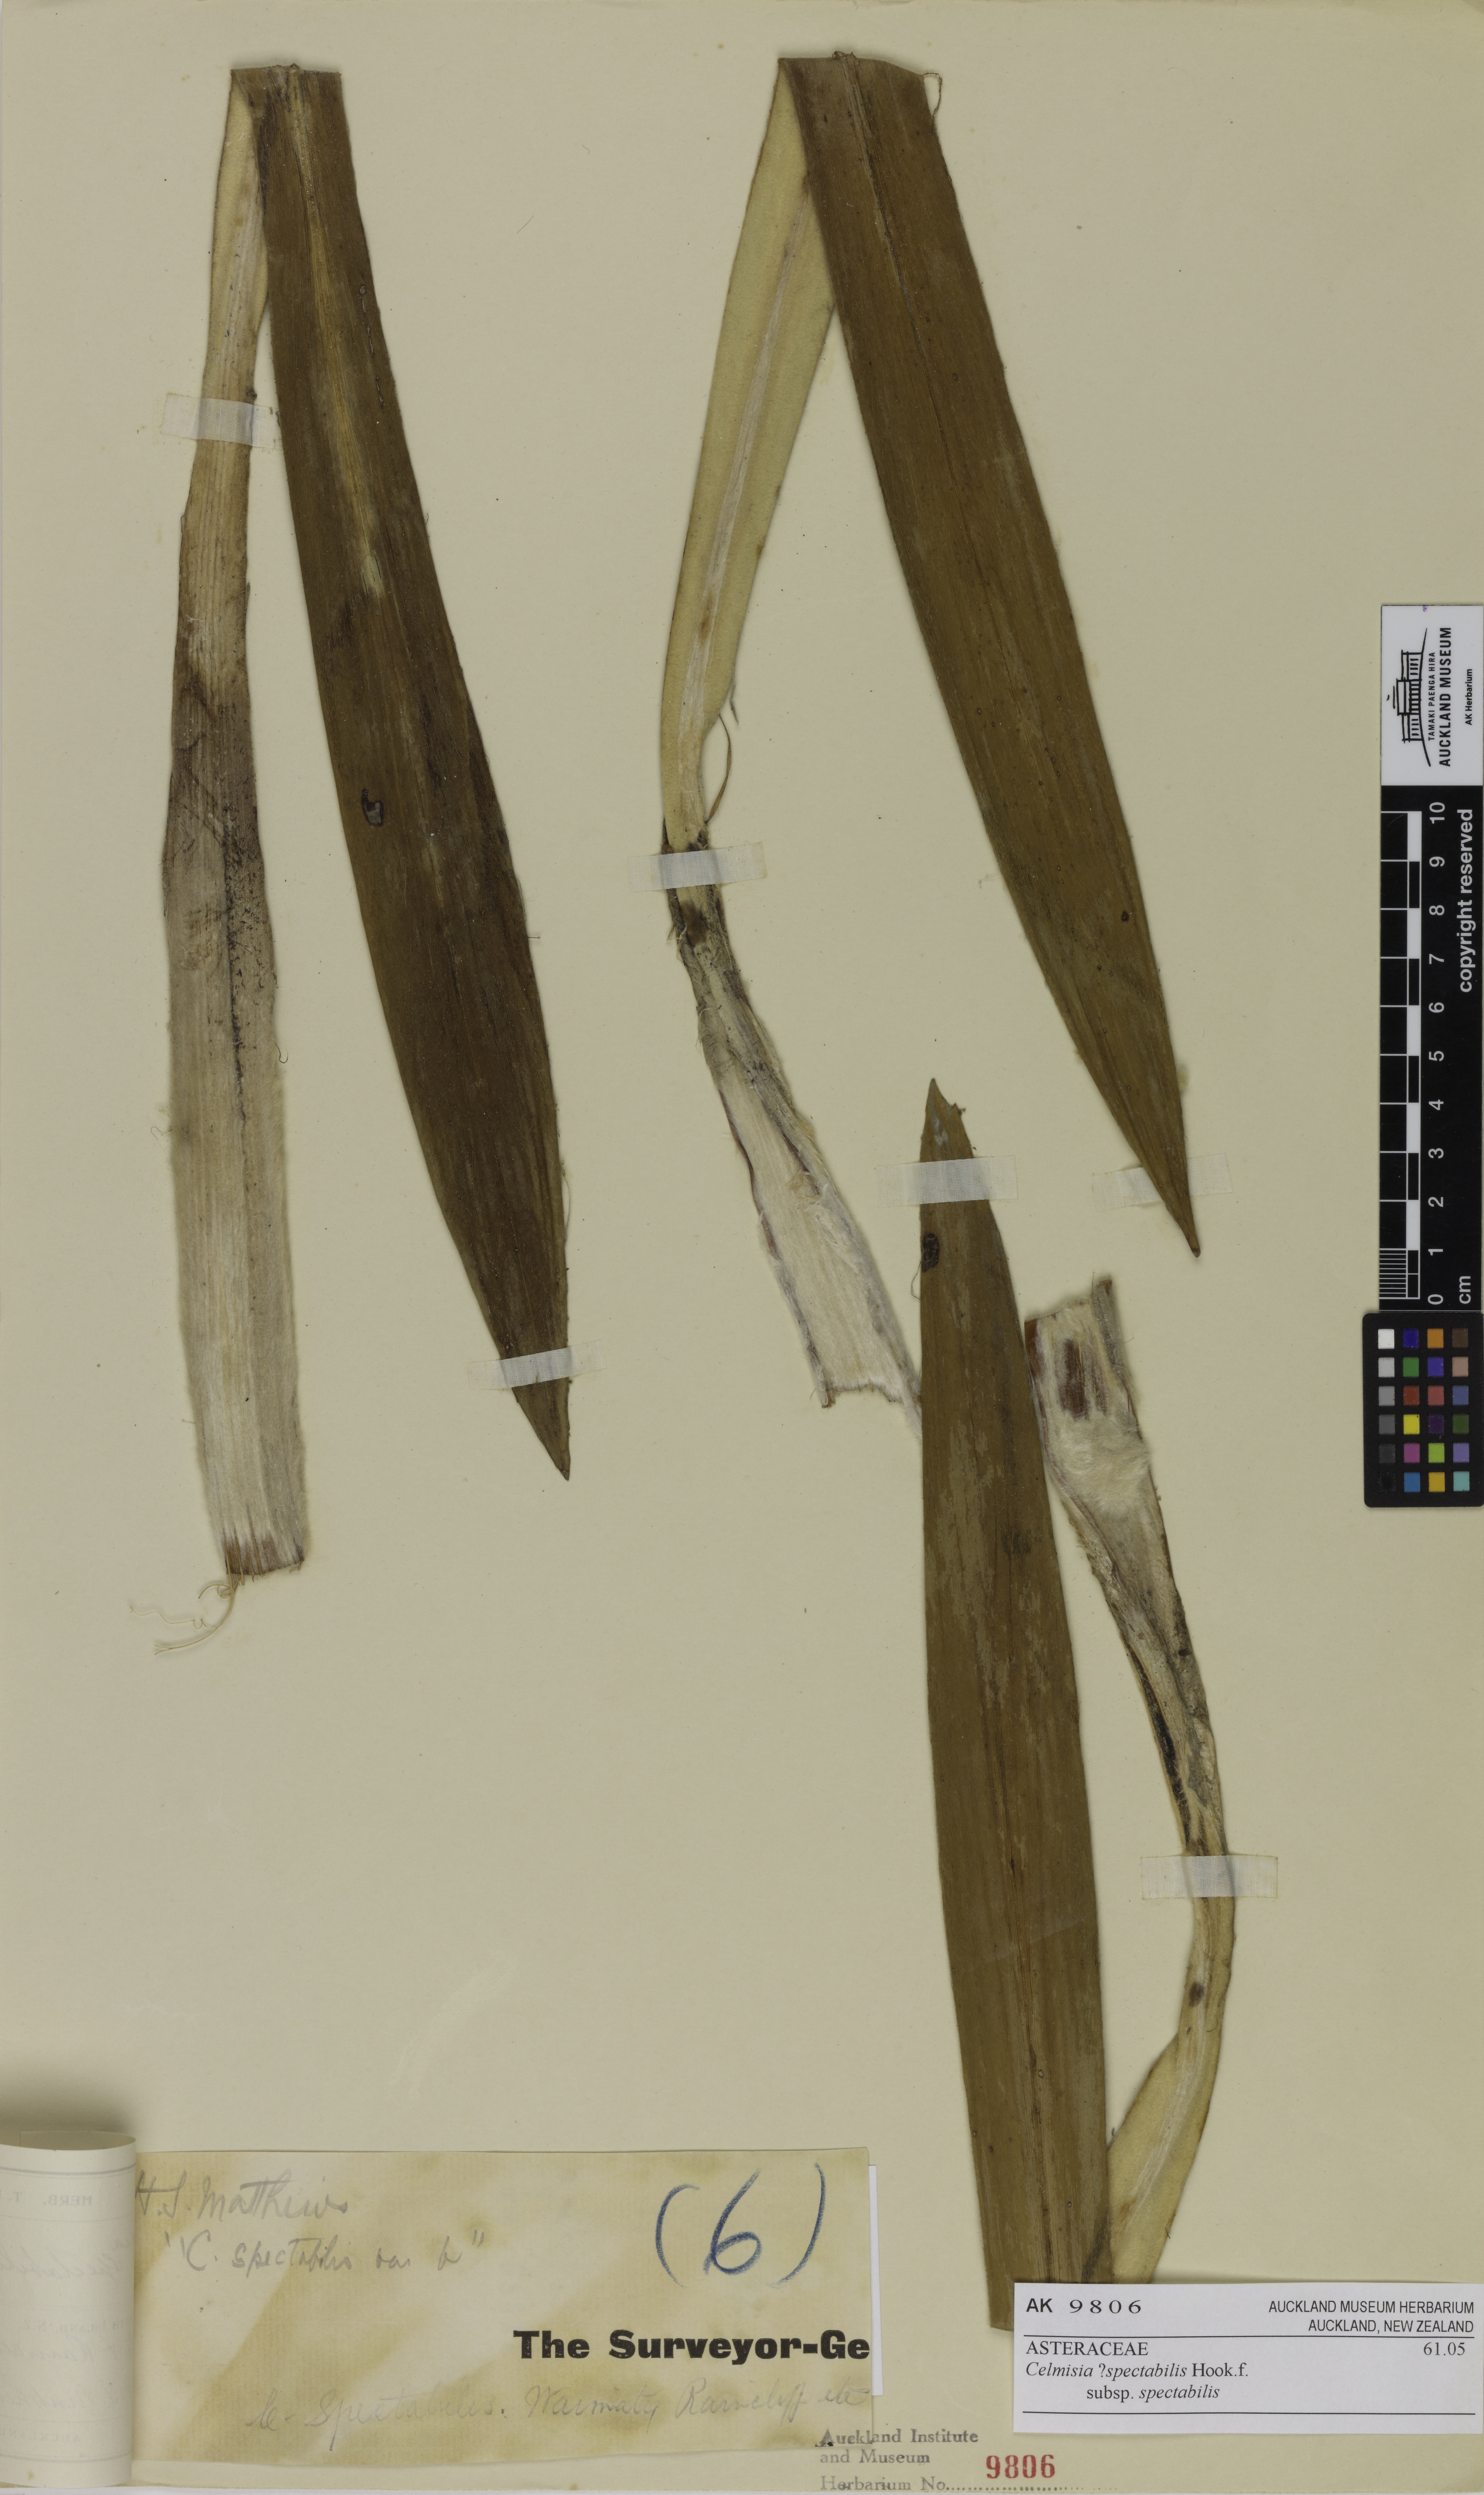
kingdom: Plantae
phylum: Tracheophyta
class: Magnoliopsida
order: Asterales
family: Asteraceae
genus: Celmisia
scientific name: Celmisia spectabilis
